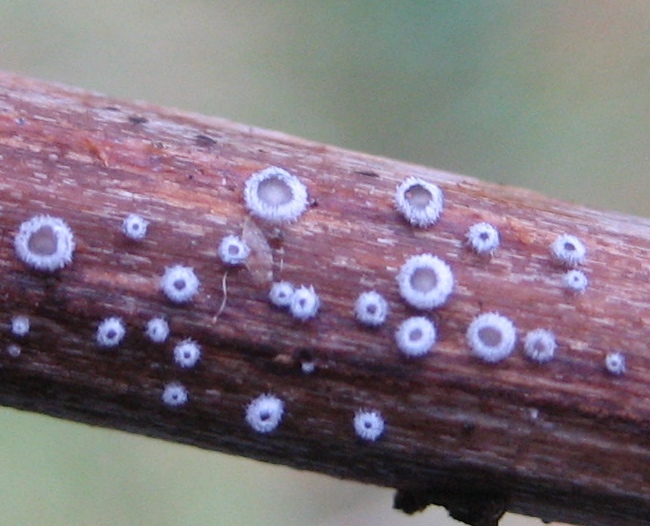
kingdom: Fungi
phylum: Basidiomycota
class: Agaricomycetes
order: Agaricales
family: Niaceae
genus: Lachnella
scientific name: Lachnella alboviolascens
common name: grå frynserede
